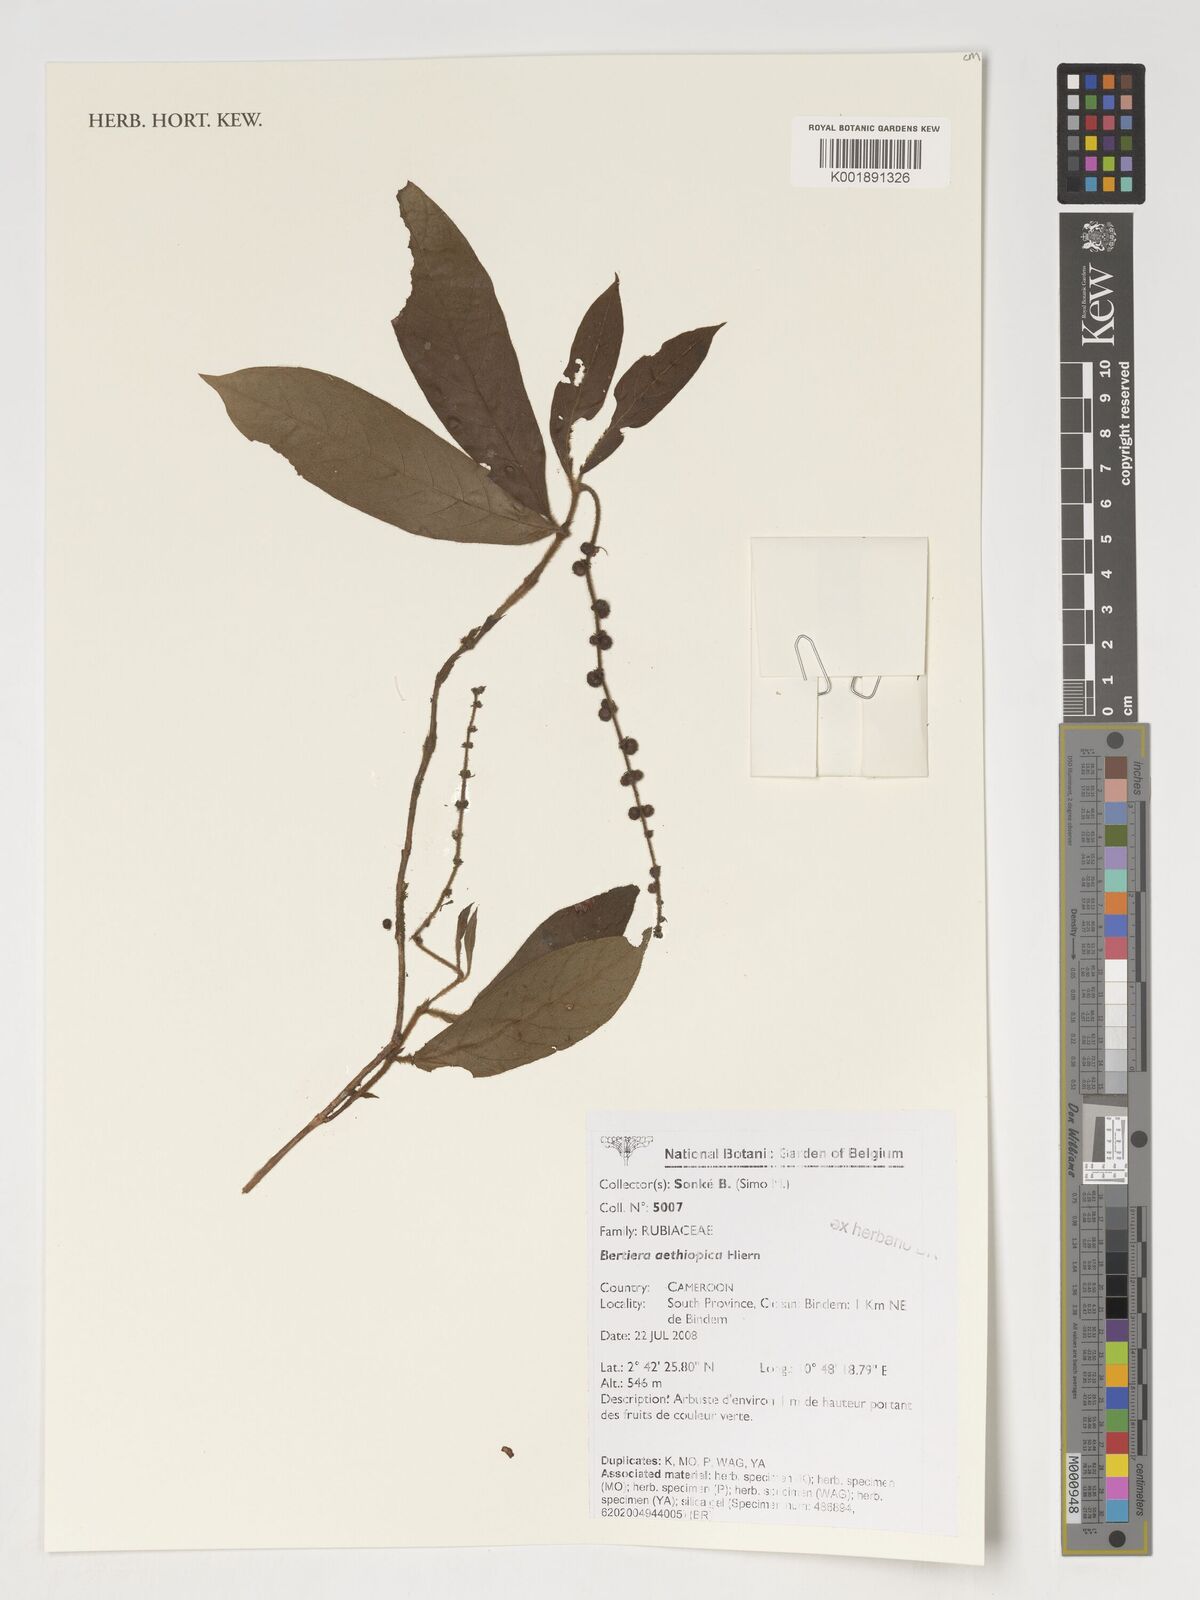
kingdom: Plantae
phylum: Tracheophyta
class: Magnoliopsida
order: Gentianales
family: Rubiaceae
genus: Bertiera
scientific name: Bertiera aethiopica
